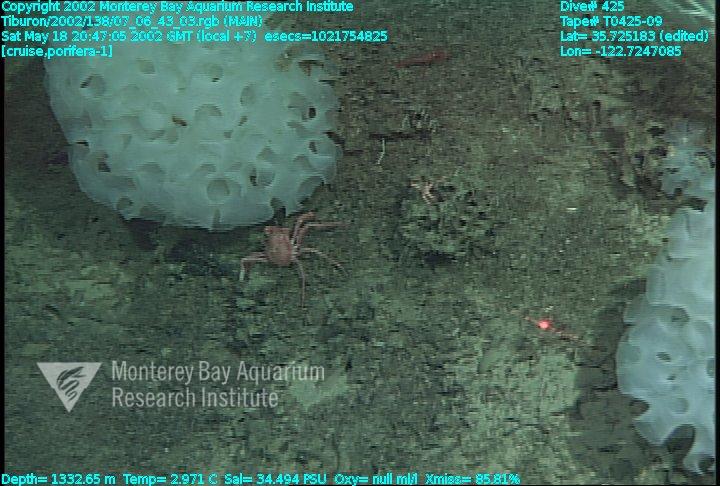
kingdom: Animalia
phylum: Porifera
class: Hexactinellida
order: Sceptrulophora
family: Farreidae
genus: Farrea
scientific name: Farrea occa
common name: Reversed glass sponge
